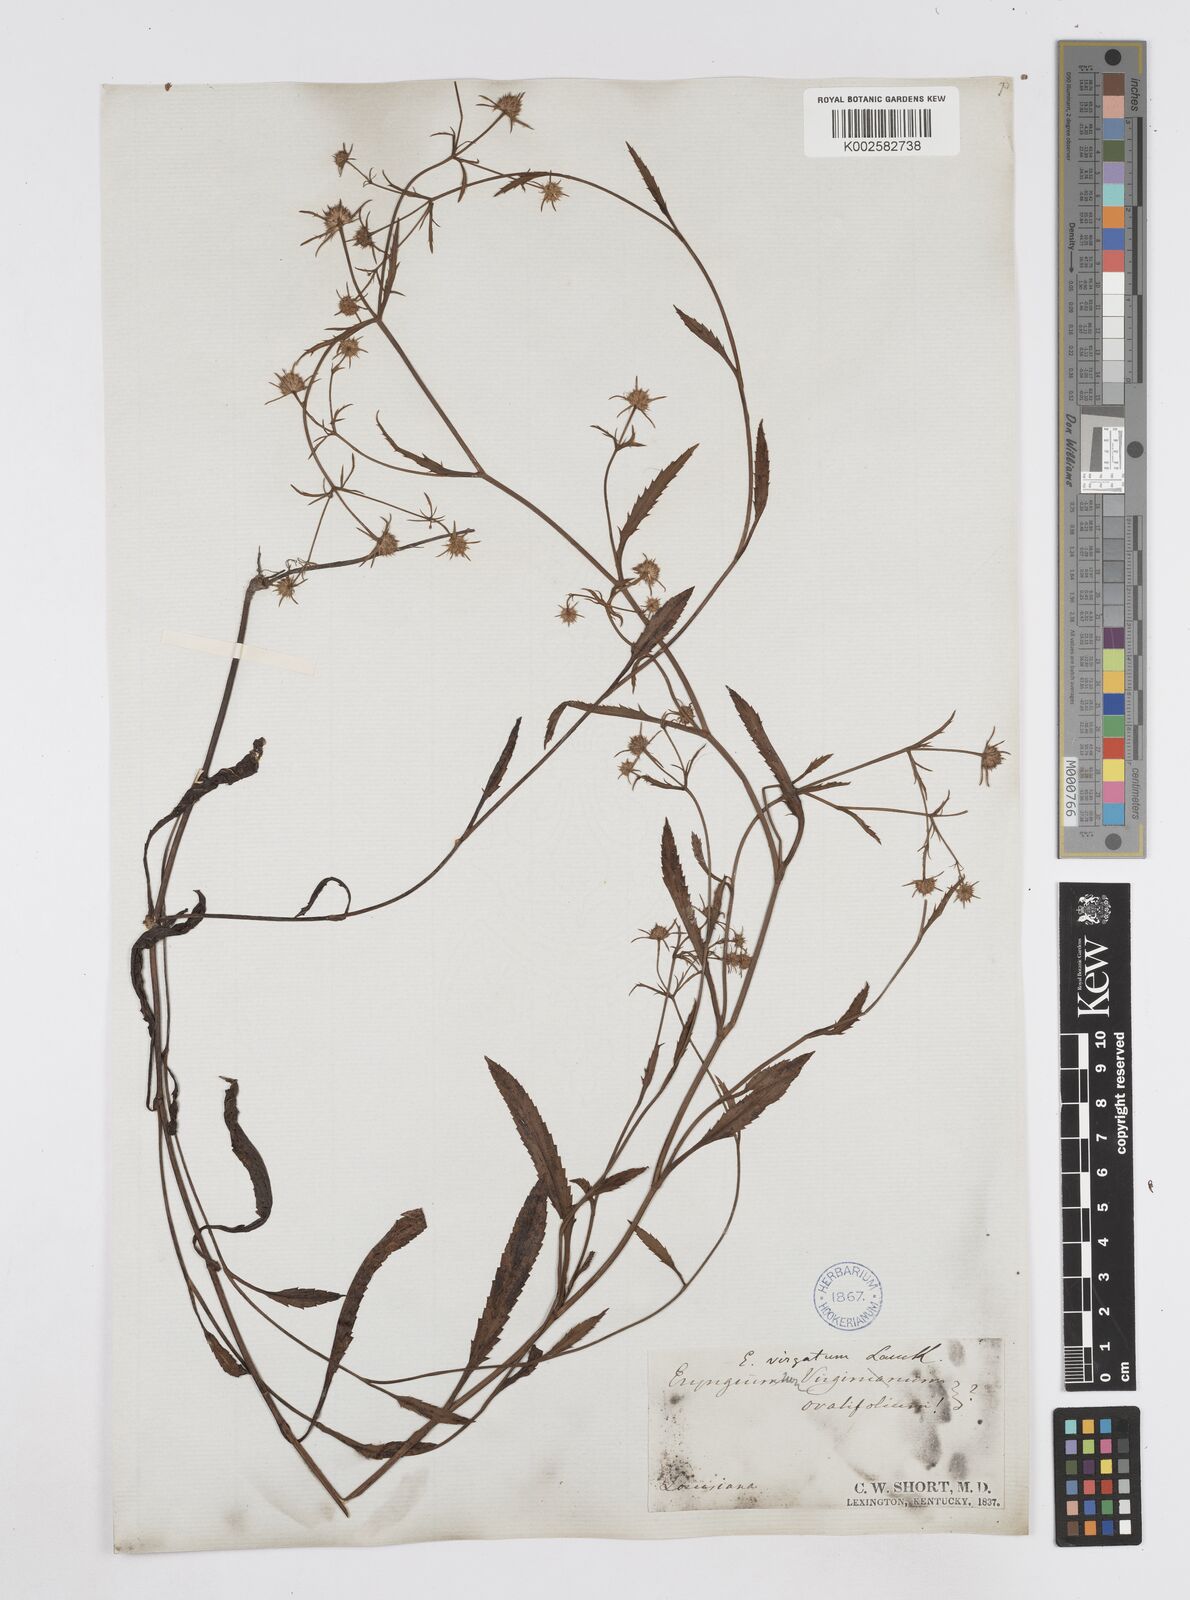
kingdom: Plantae
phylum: Tracheophyta
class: Magnoliopsida
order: Apiales
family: Apiaceae
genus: Eryngium
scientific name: Eryngium integrifolium
